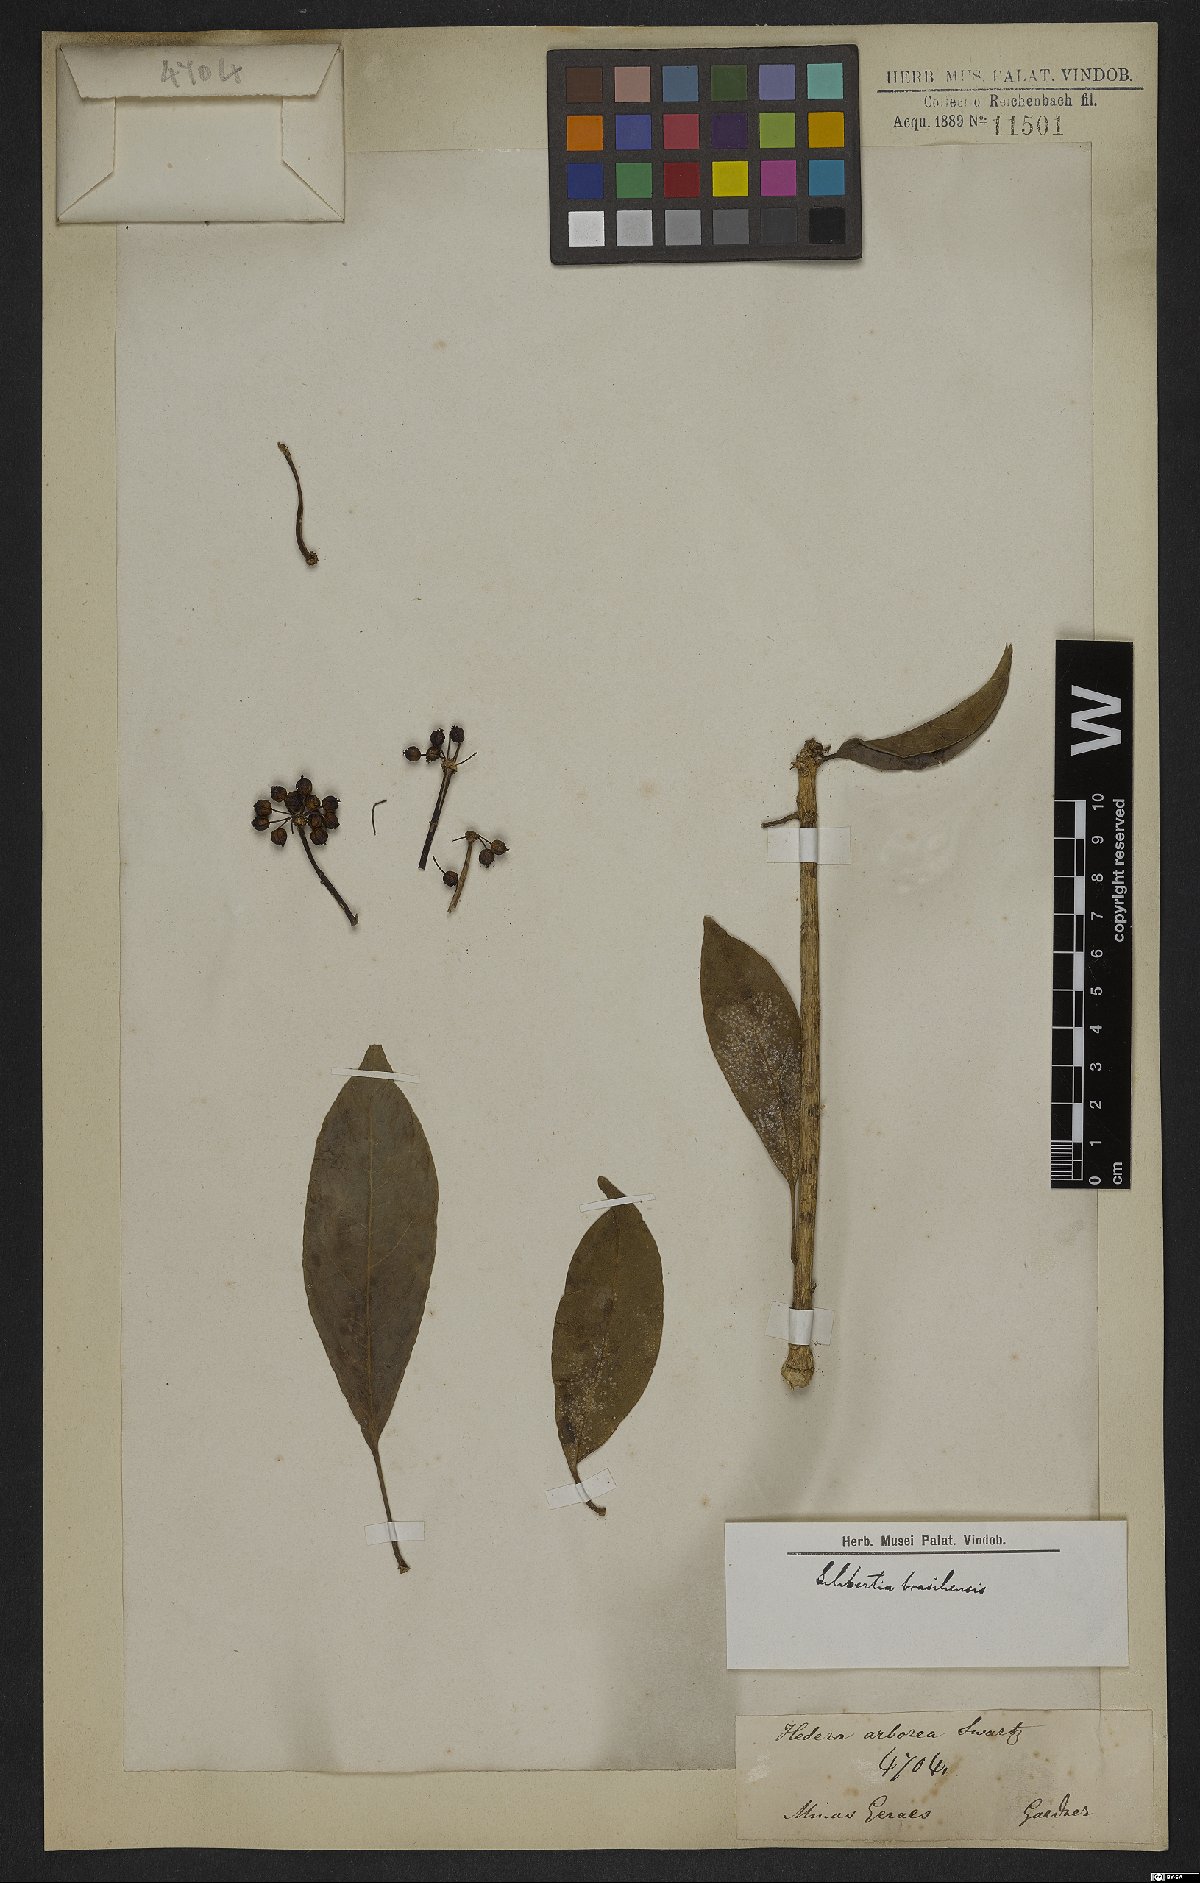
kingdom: Plantae
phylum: Tracheophyta
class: Magnoliopsida
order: Apiales
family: Araliaceae
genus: Dendropanax
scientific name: Dendropanax brasiliensis
